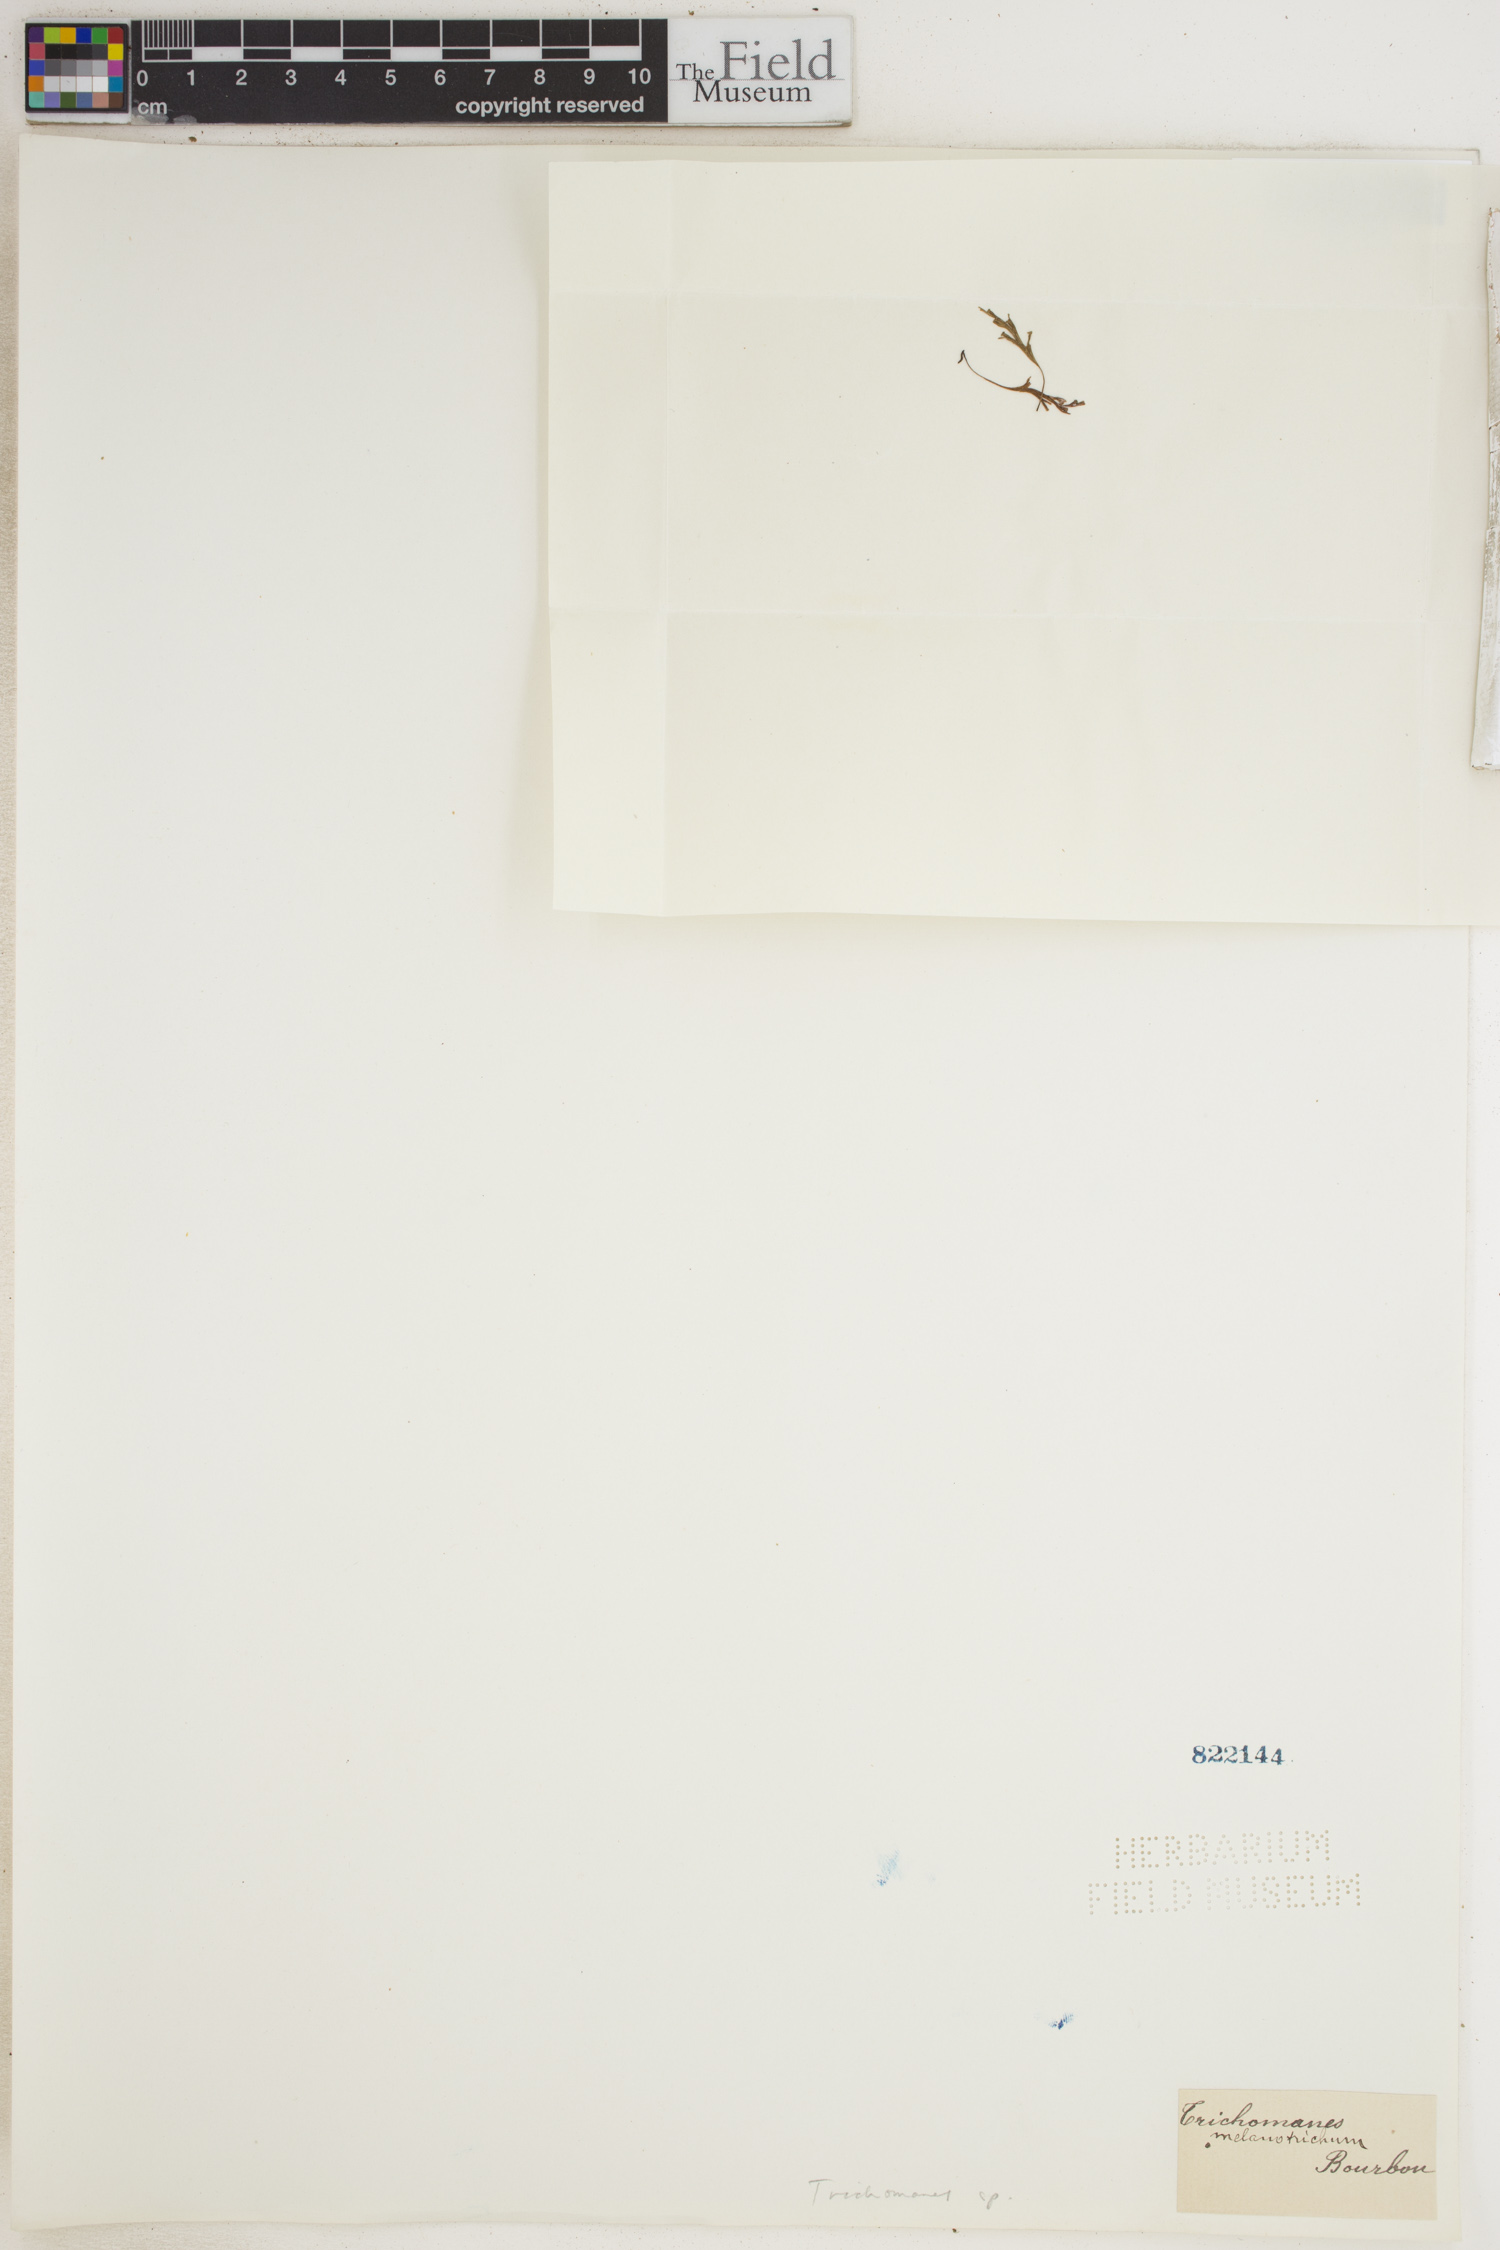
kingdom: Plantae
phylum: Tracheophyta
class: Polypodiopsida
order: Hymenophyllales
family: Hymenophyllaceae
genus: Trichomanes
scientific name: Trichomanes
